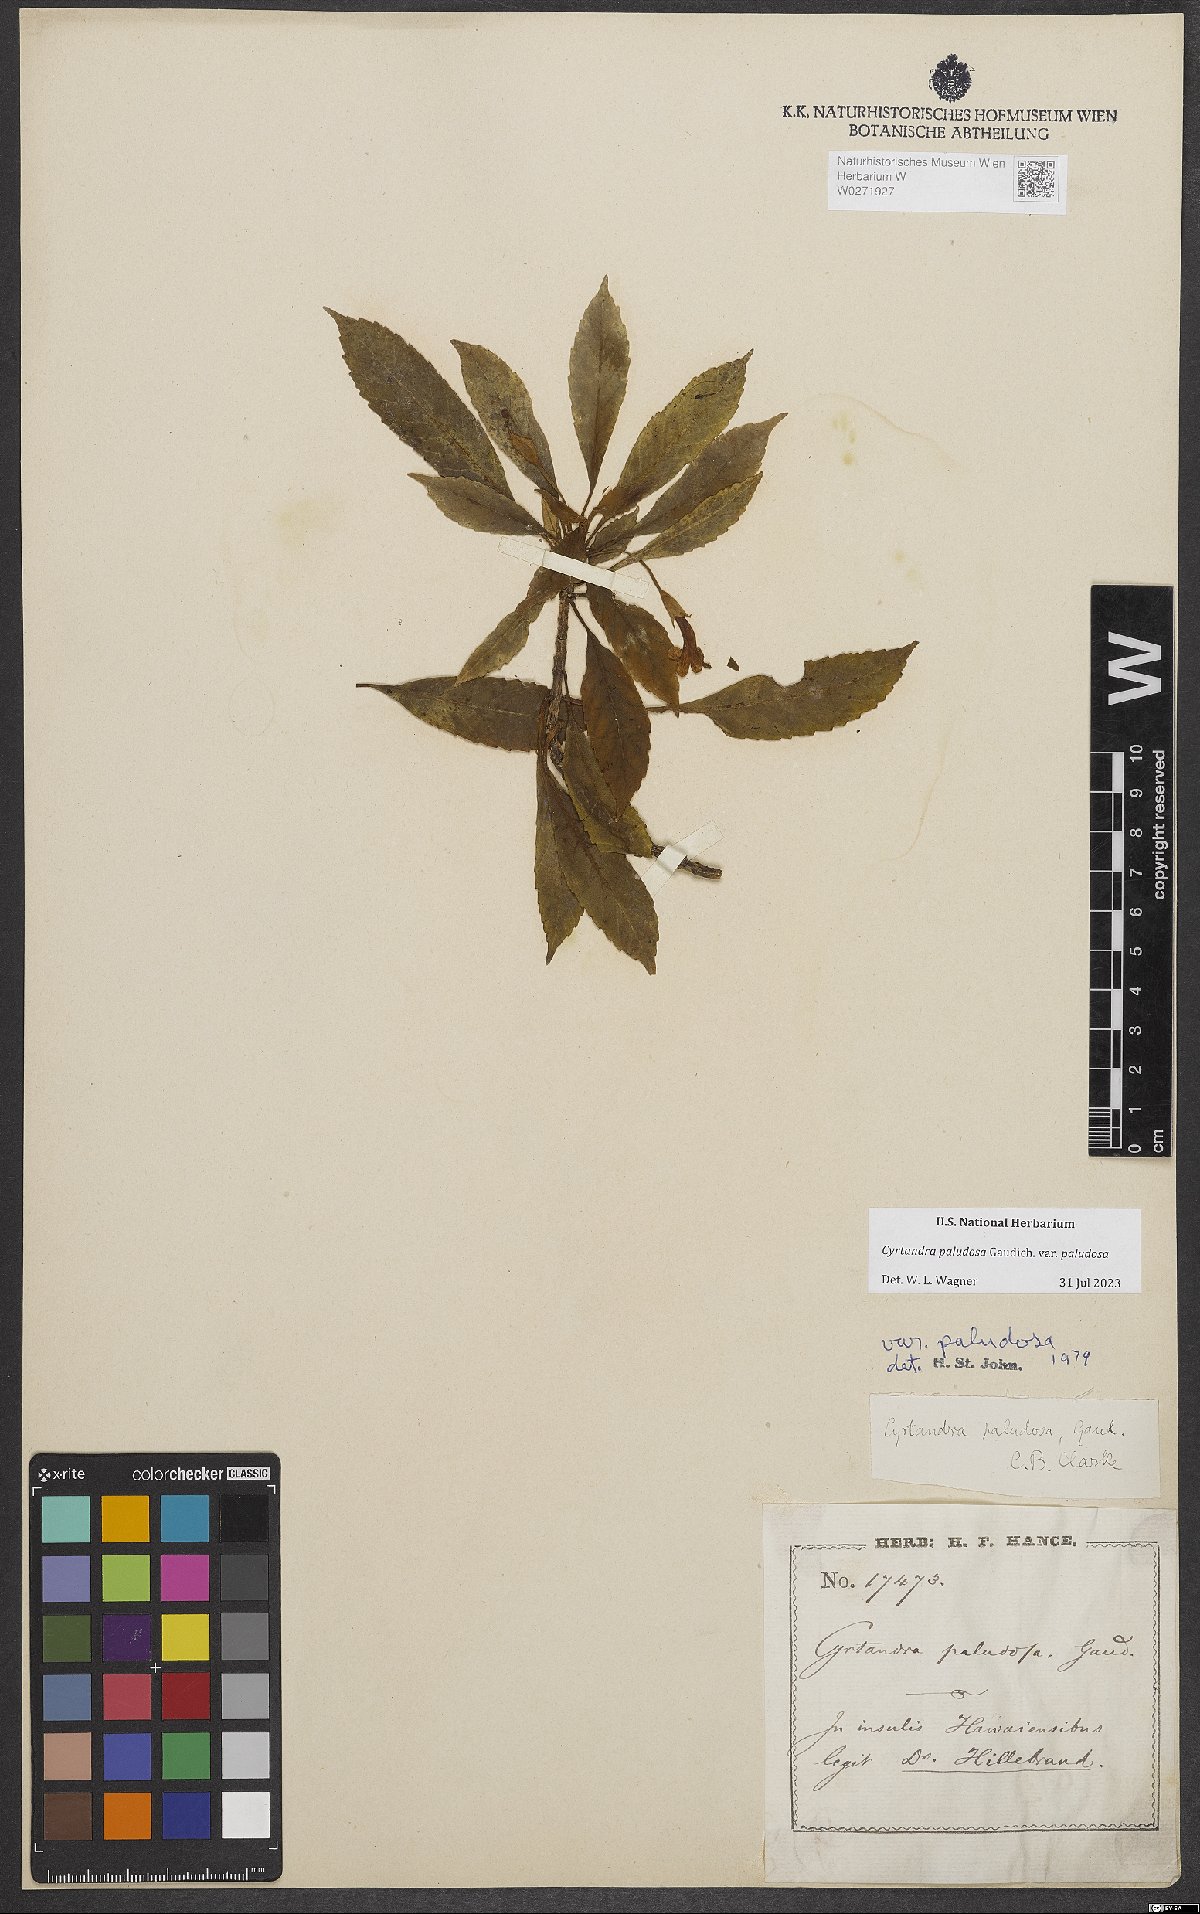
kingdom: Plantae
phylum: Tracheophyta
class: Magnoliopsida
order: Lamiales
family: Gesneriaceae
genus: Cyrtandra
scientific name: Cyrtandra paludosa
